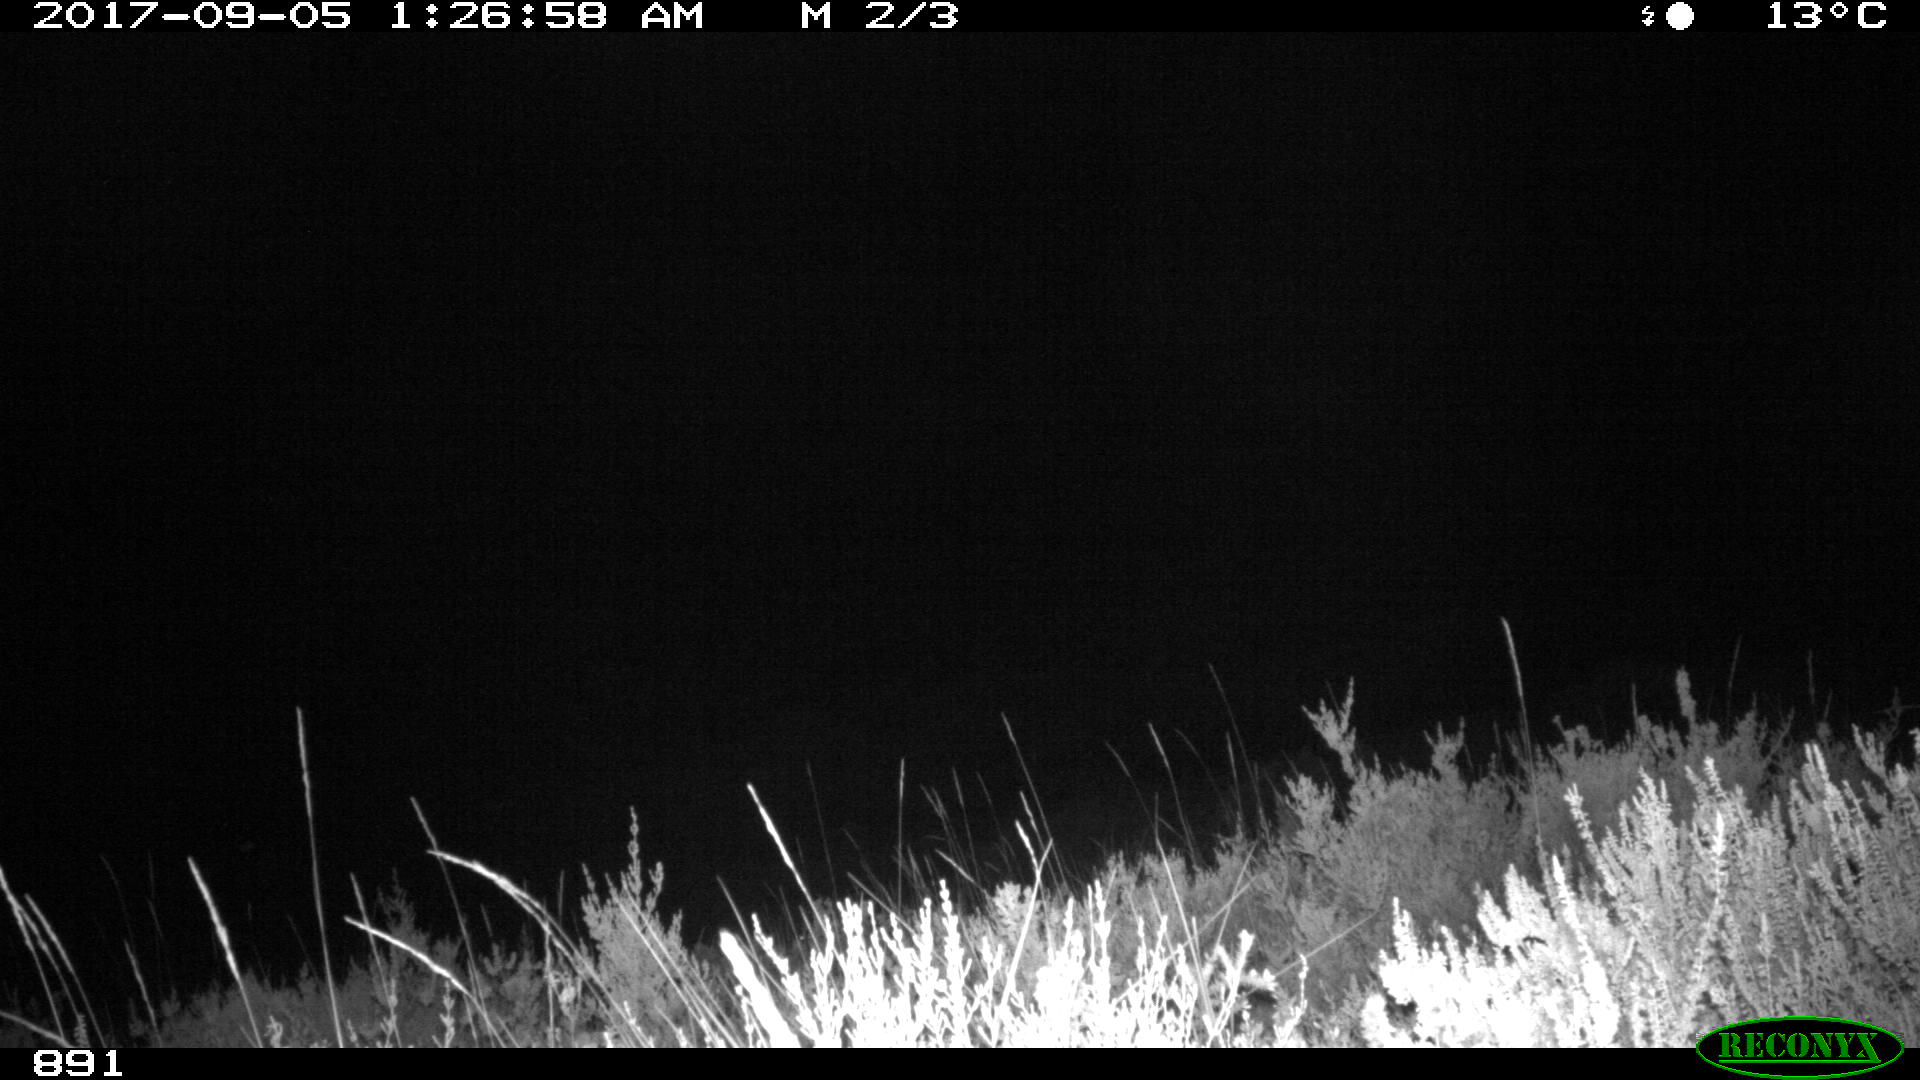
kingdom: Animalia
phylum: Chordata
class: Mammalia
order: Artiodactyla
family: Bovidae
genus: Bos
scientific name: Bos taurus
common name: Domesticated cattle
